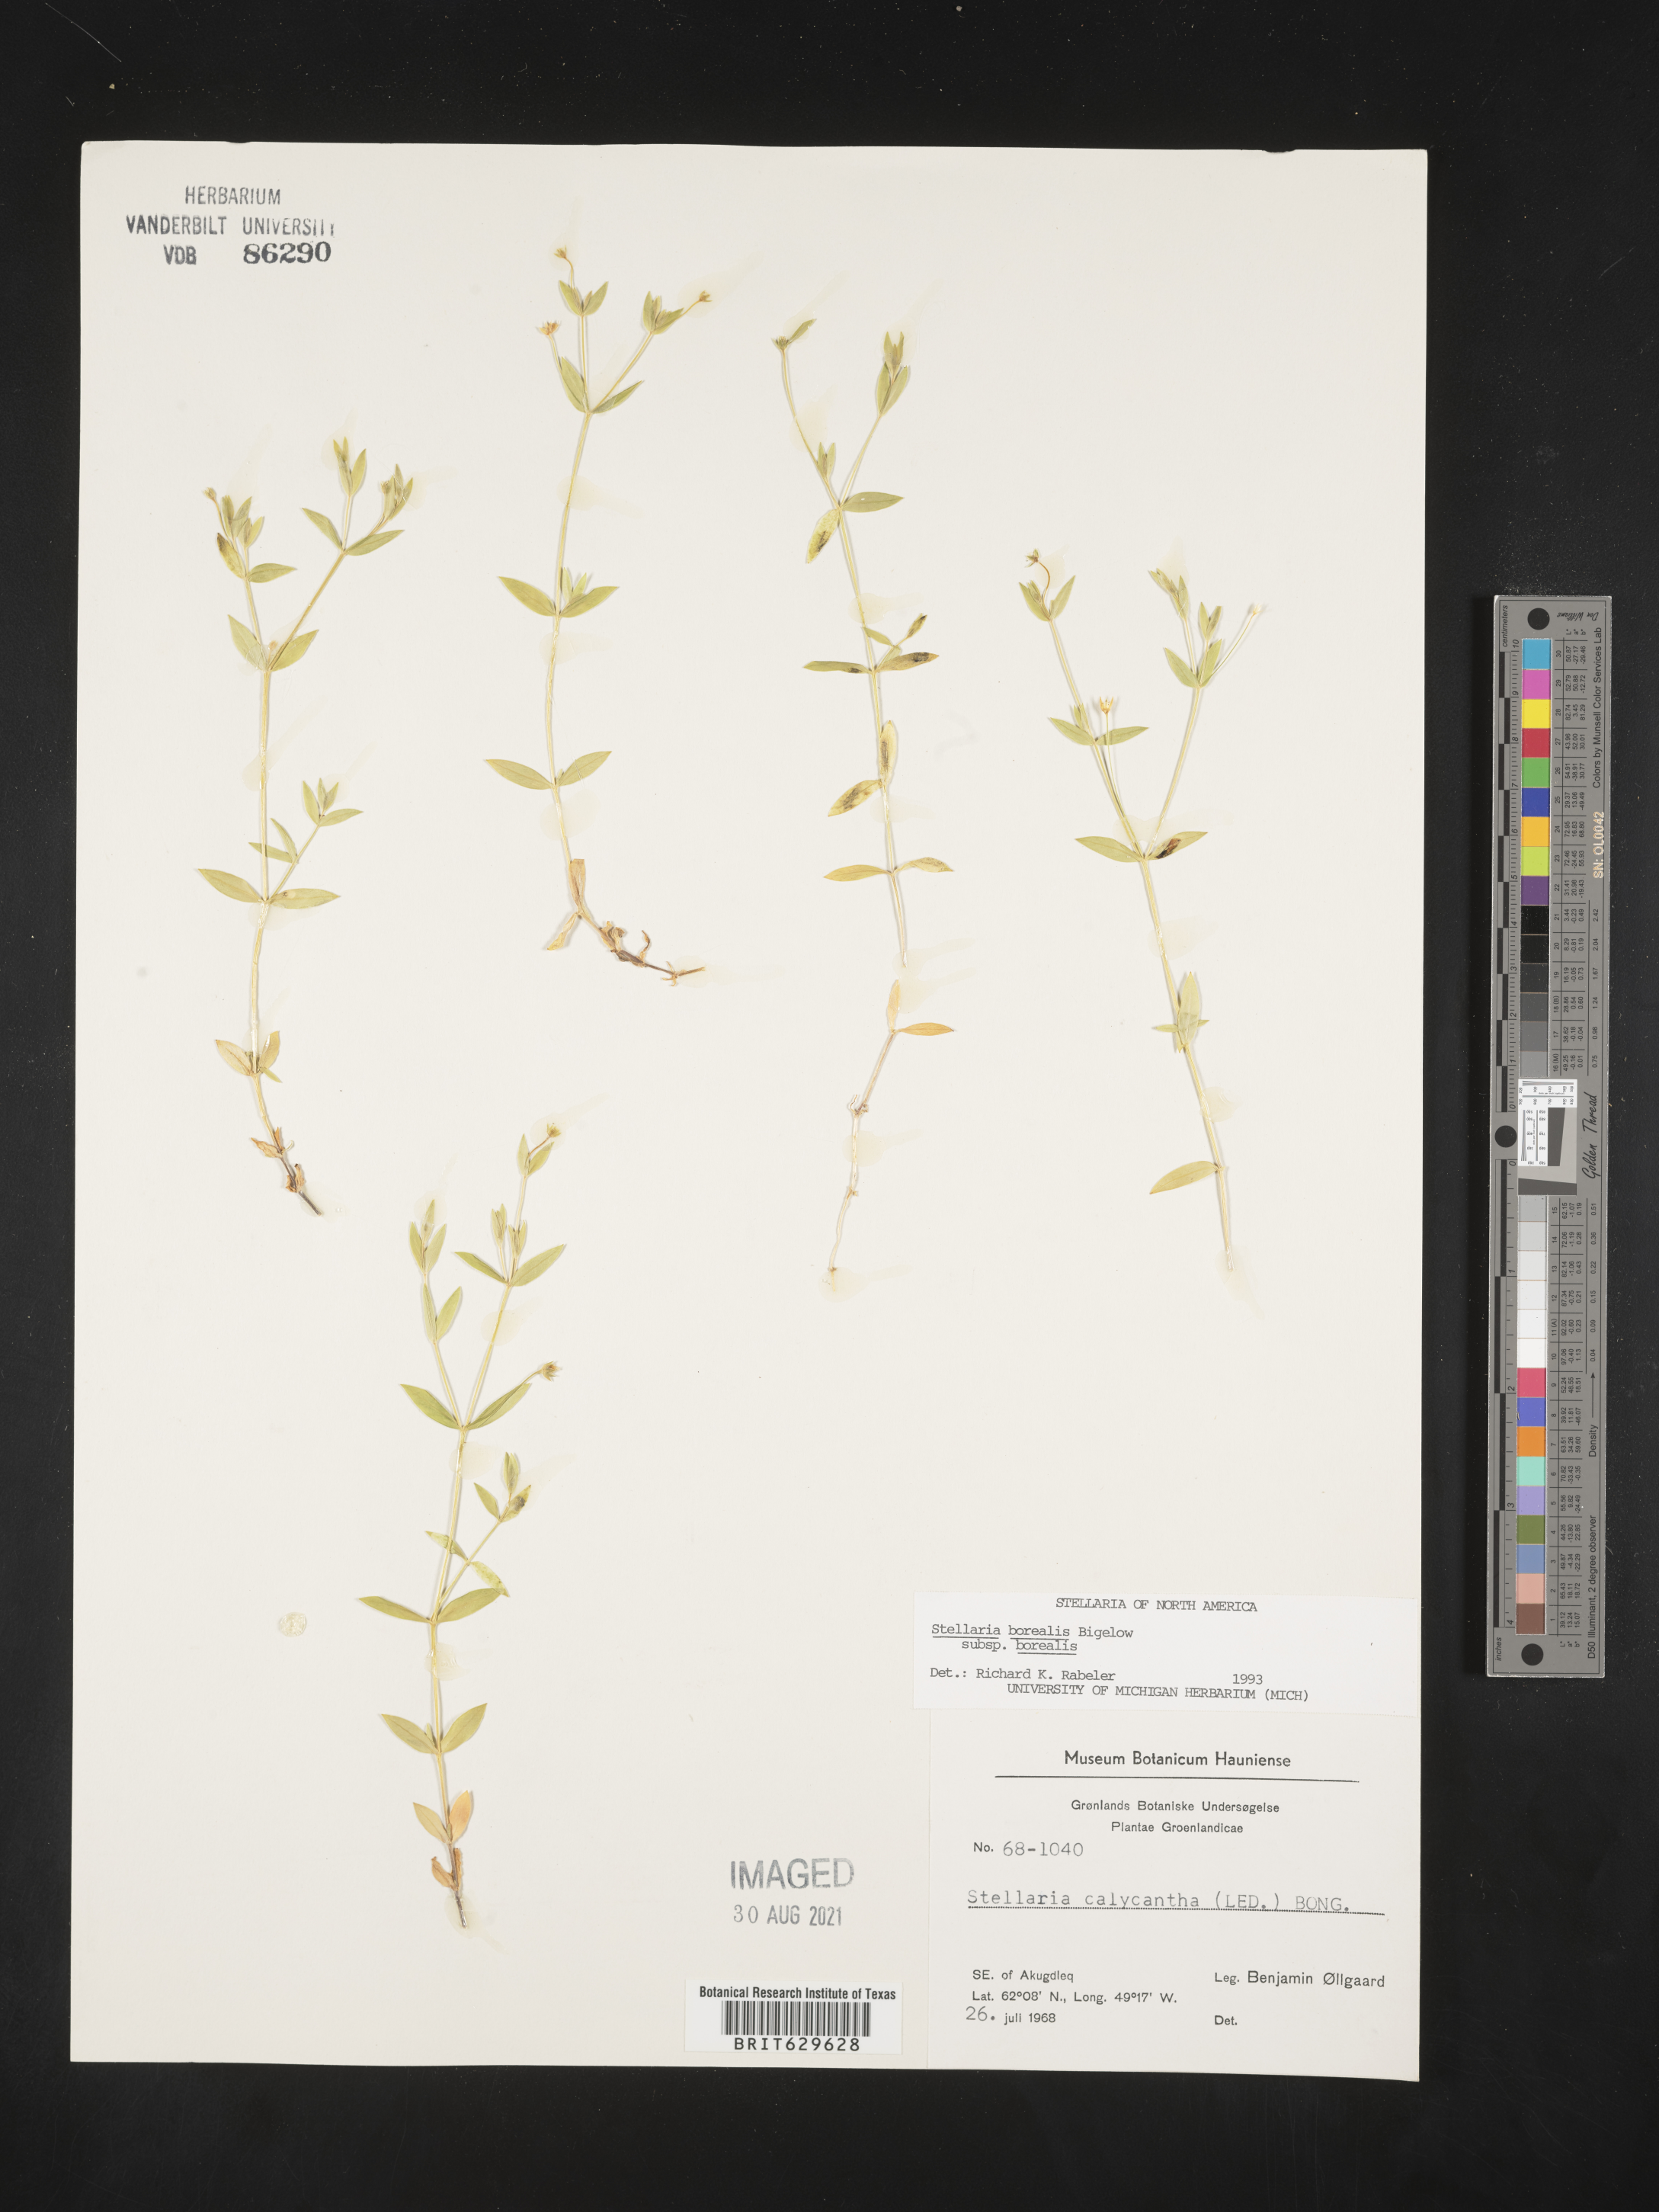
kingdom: Plantae
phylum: Tracheophyta
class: Magnoliopsida
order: Caryophyllales
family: Caryophyllaceae
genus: Stellaria
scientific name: Stellaria borealis
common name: Boreal starwort
